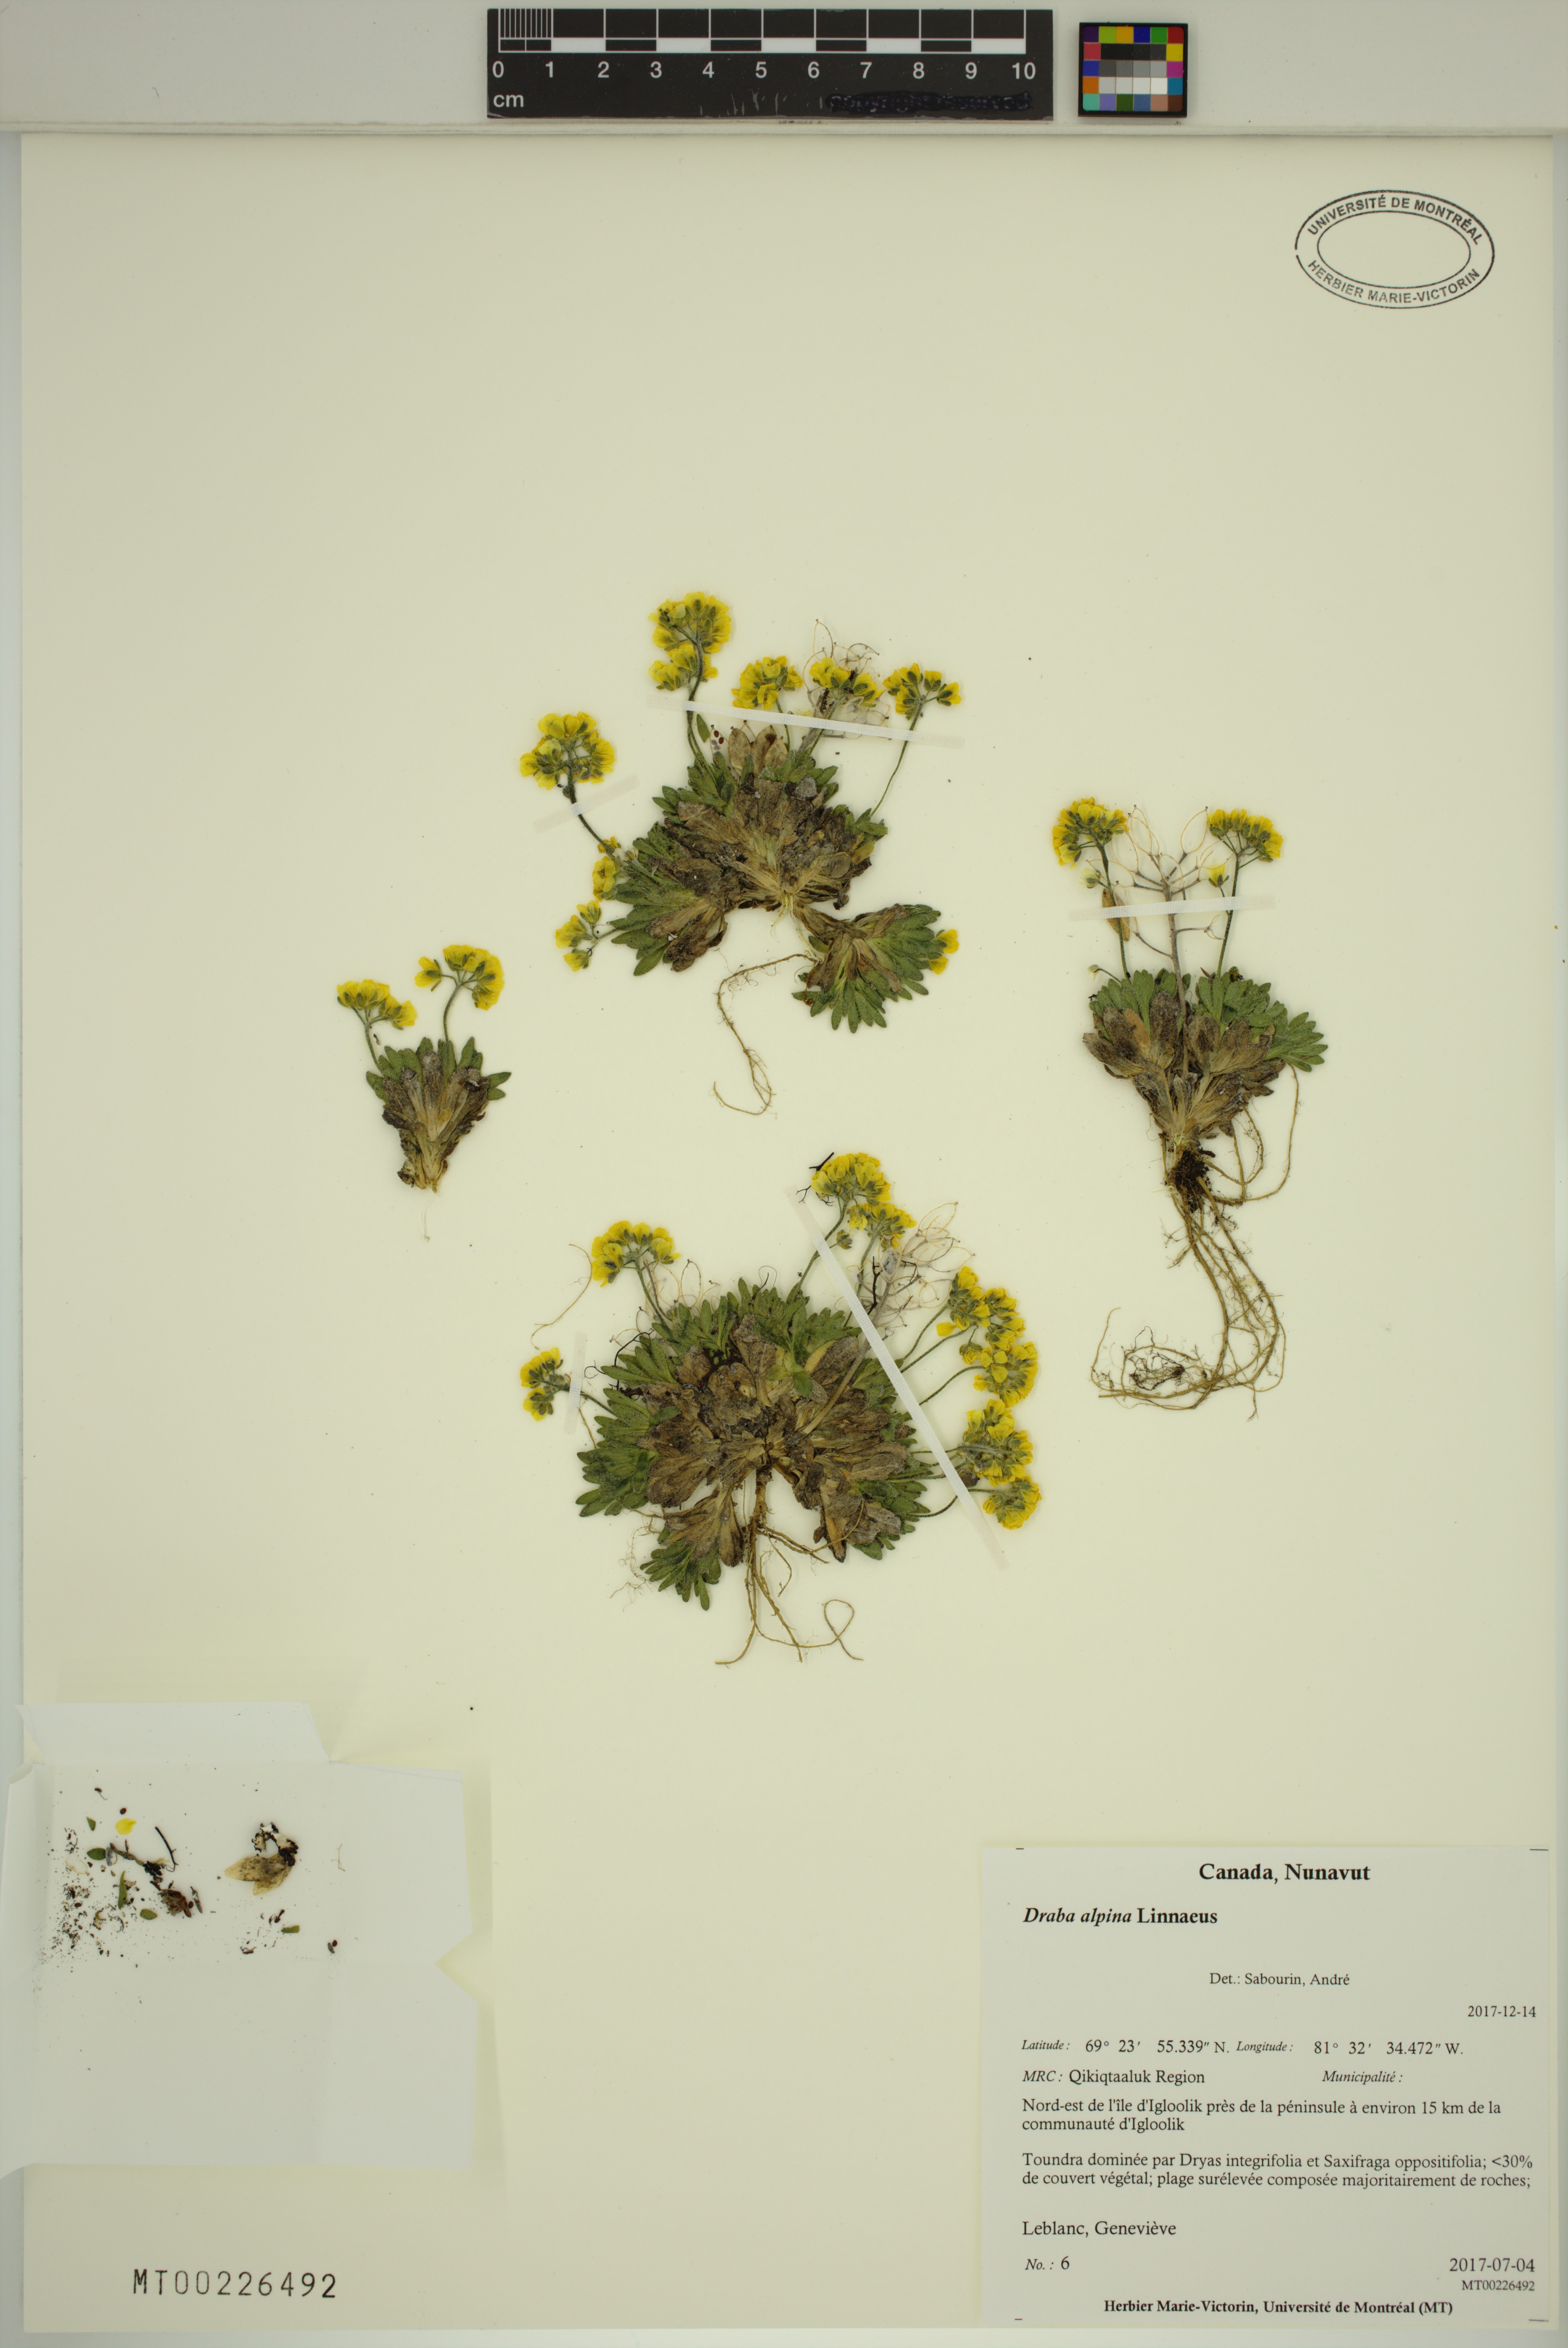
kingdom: Plantae
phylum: Tracheophyta
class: Magnoliopsida
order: Brassicales
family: Brassicaceae
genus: Draba
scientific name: Draba alpina
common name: Alpine draba
